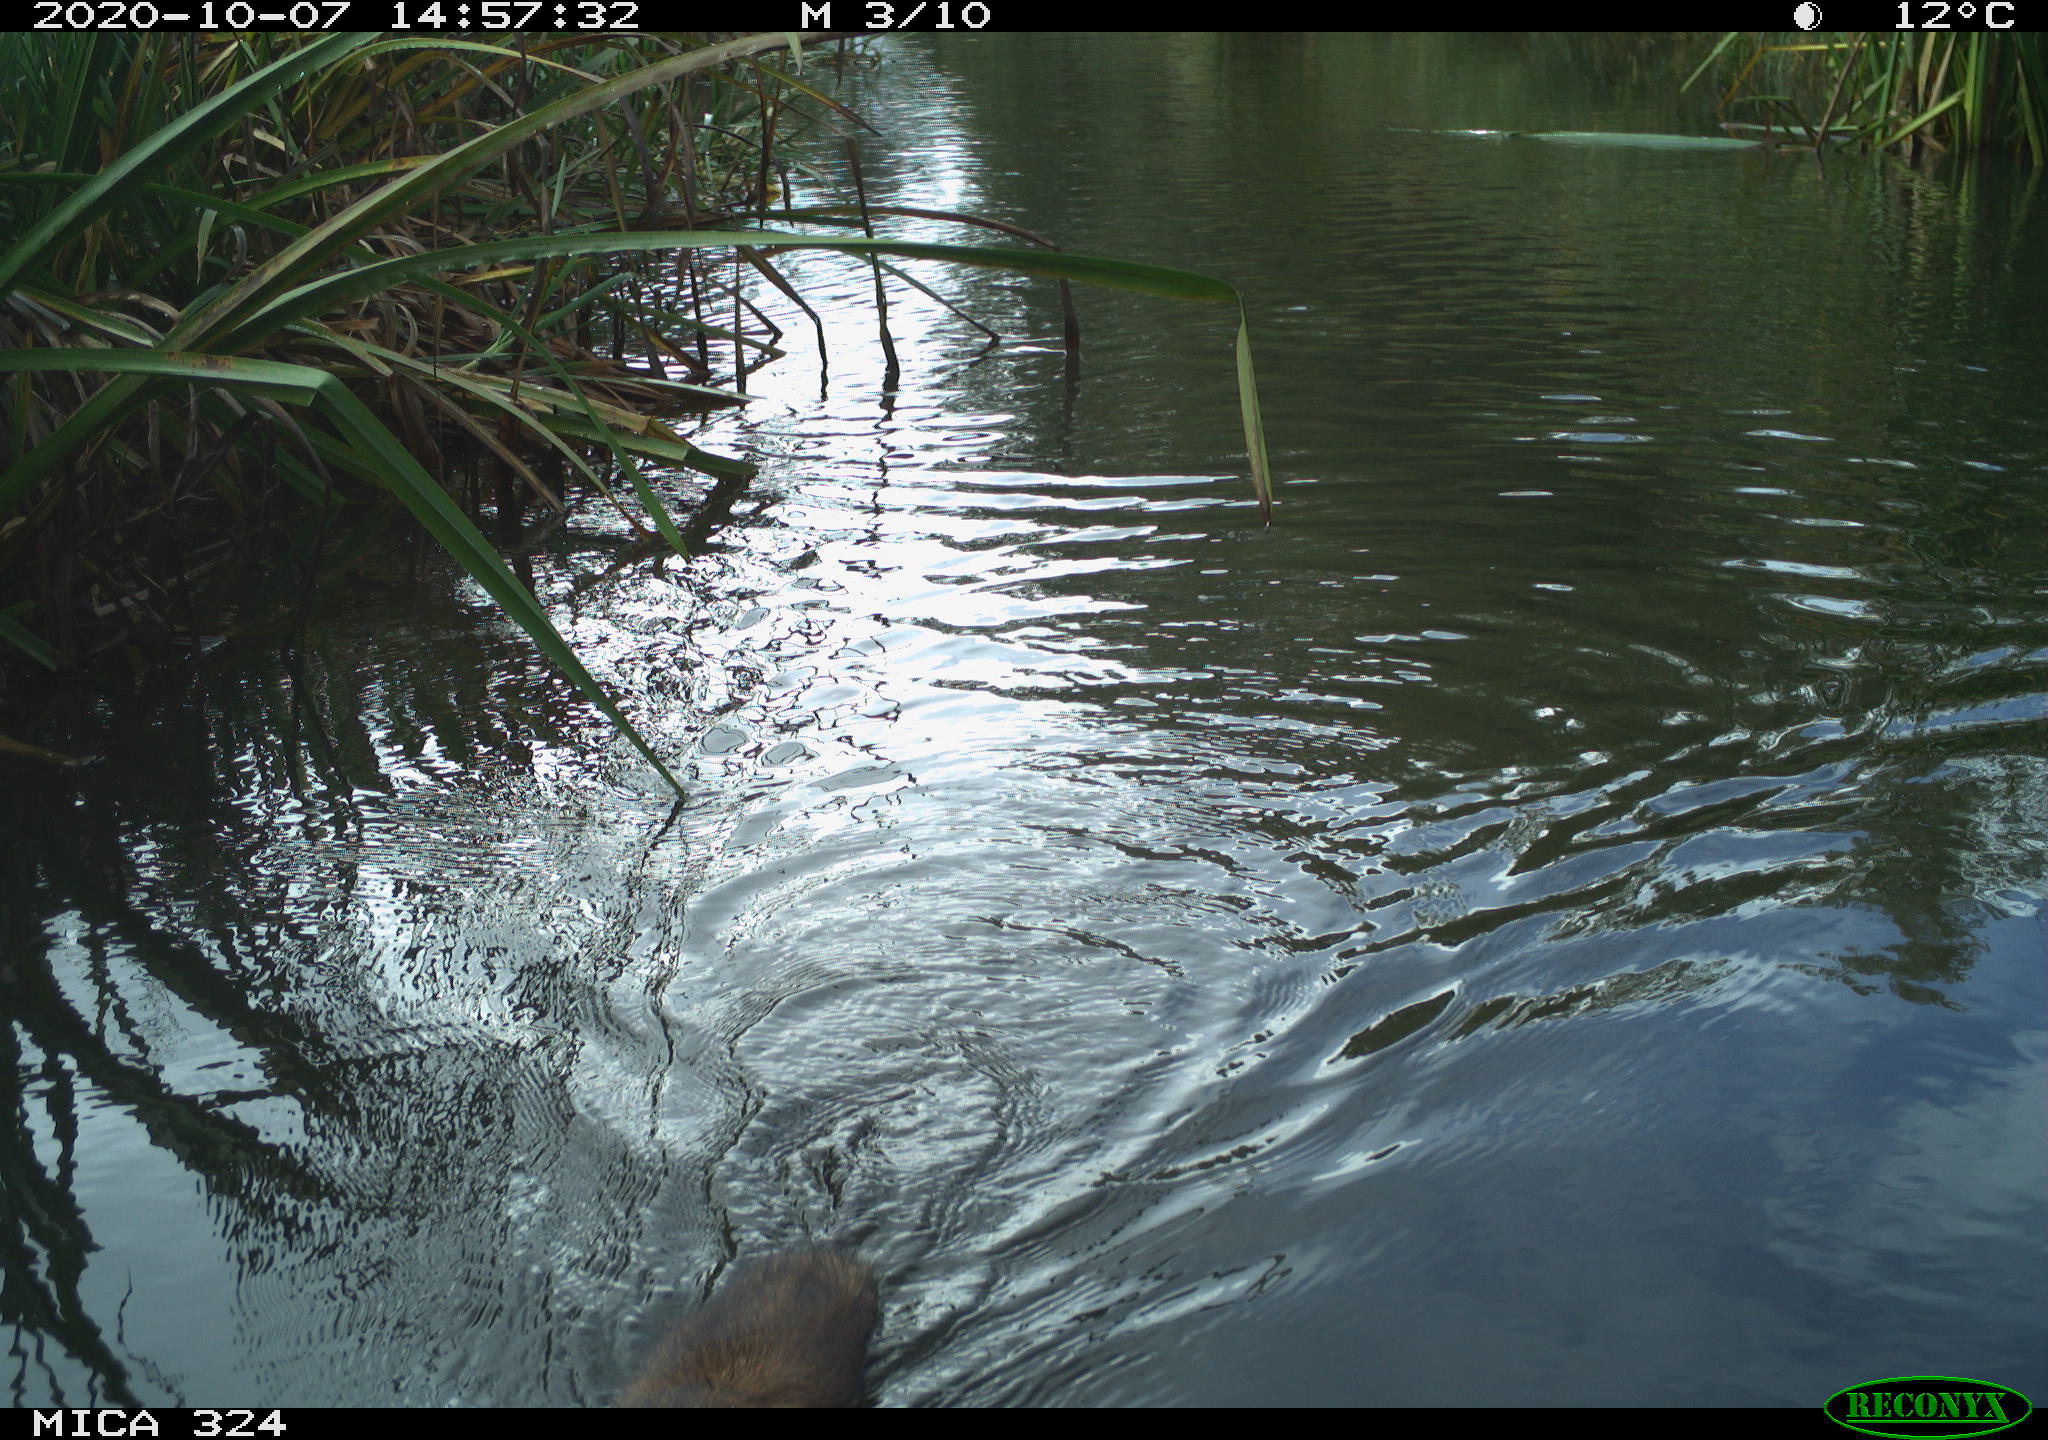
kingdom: Animalia
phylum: Chordata
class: Mammalia
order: Rodentia
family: Cricetidae
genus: Ondatra
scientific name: Ondatra zibethicus
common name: Muskrat
